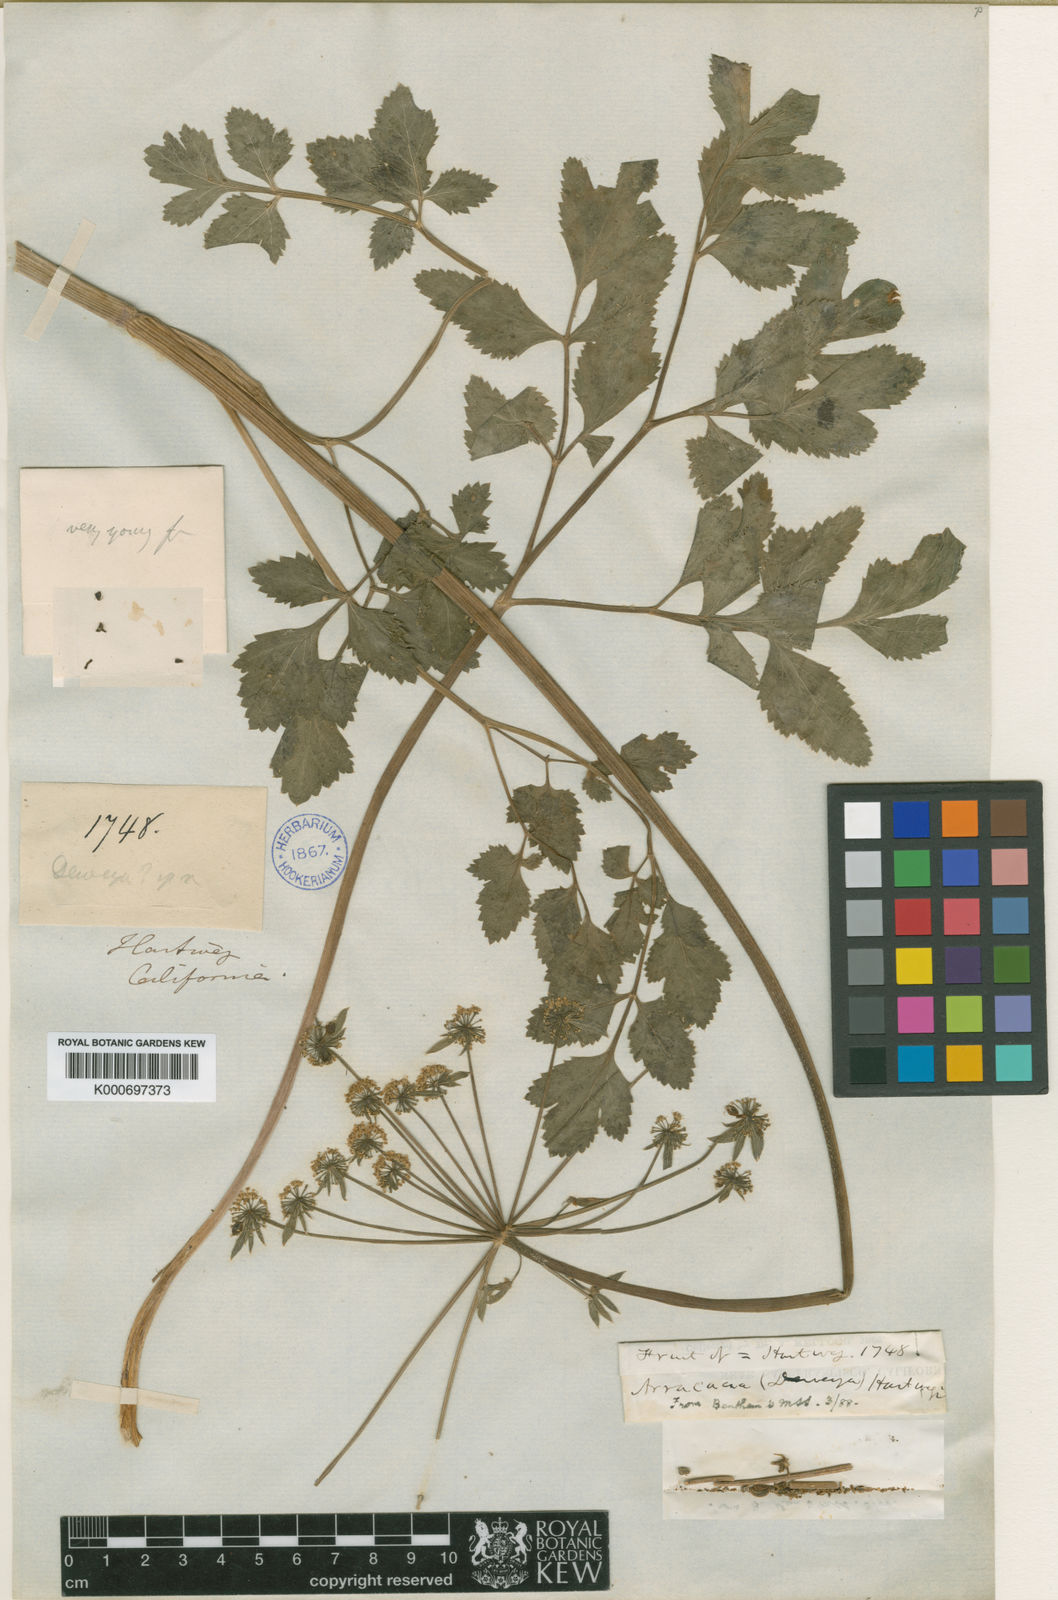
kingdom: Plantae
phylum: Tracheophyta
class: Magnoliopsida
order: Apiales
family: Apiaceae
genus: Tauschia
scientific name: Tauschia hartwegii
